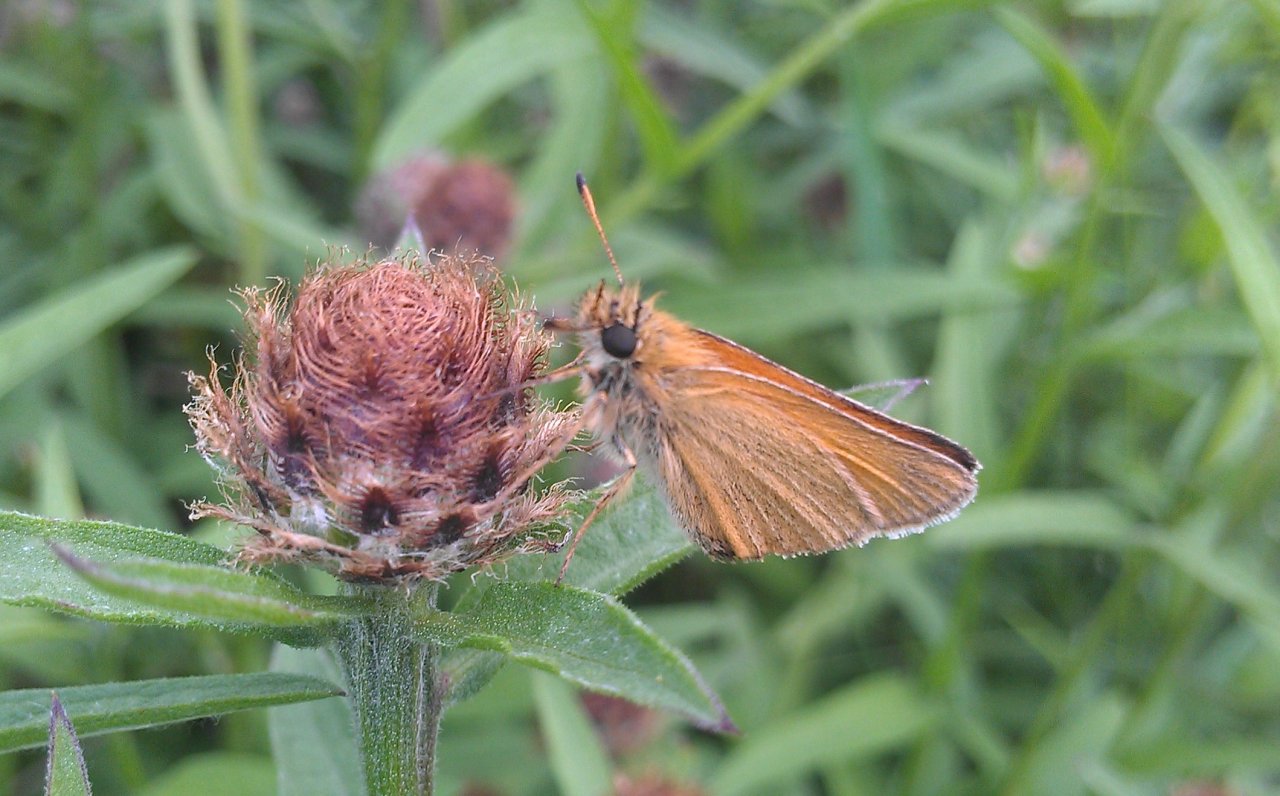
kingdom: Animalia
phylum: Arthropoda
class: Insecta
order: Lepidoptera
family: Hesperiidae
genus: Thymelicus
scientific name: Thymelicus lineola
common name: European Skipper
